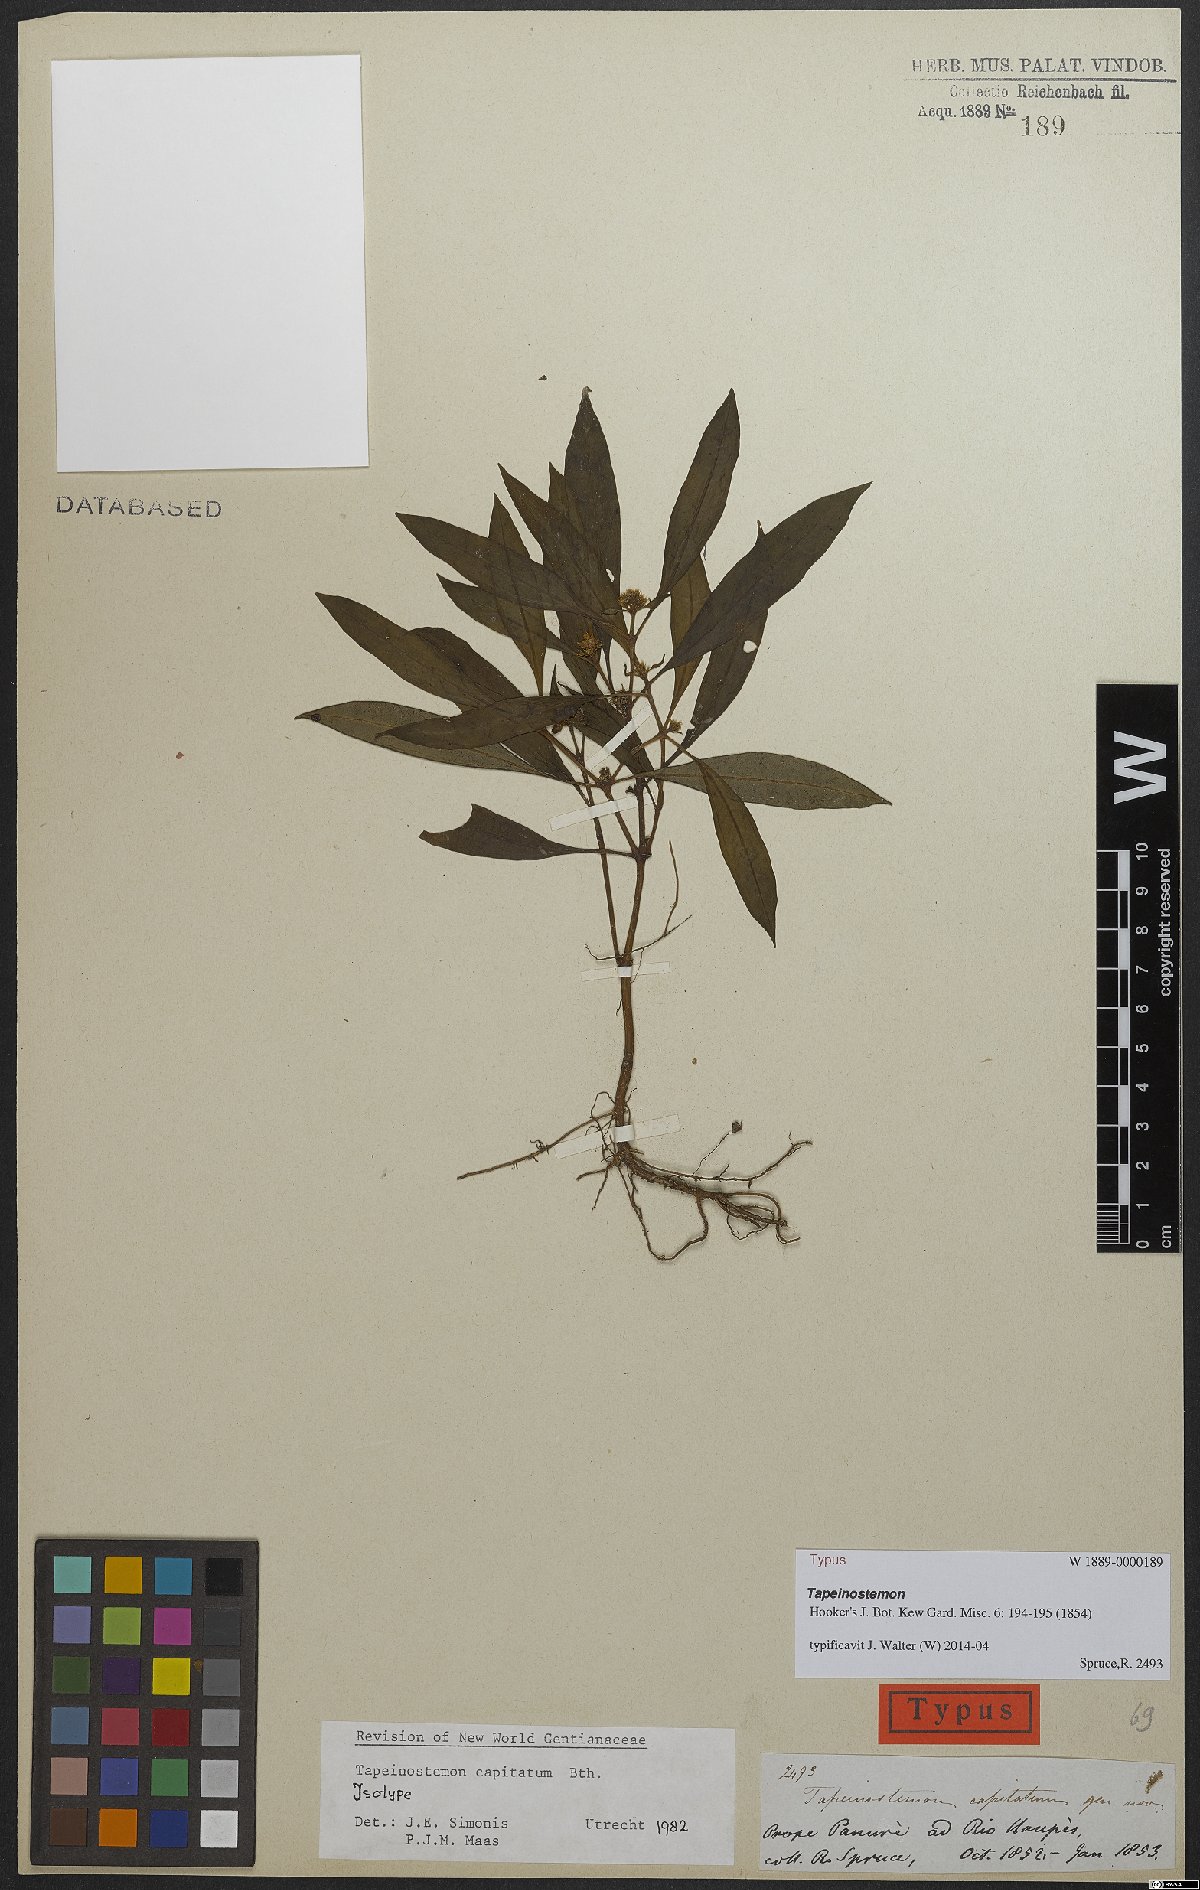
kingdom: Plantae
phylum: Tracheophyta
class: Magnoliopsida
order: Gentianales
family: Gentianaceae
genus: Tapeinostemon
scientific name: Tapeinostemon sessiliflorus
